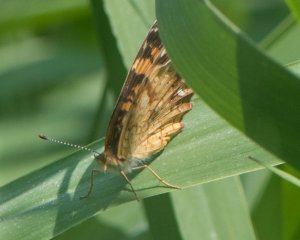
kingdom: Animalia
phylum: Arthropoda
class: Insecta
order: Lepidoptera
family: Nymphalidae
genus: Phyciodes
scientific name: Phyciodes tharos
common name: Pearl Crescent
